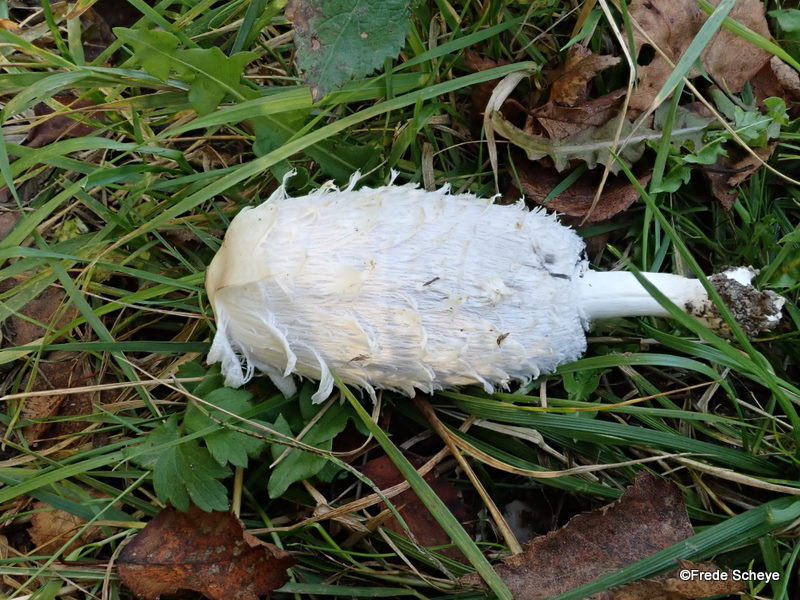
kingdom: Fungi
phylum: Basidiomycota
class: Agaricomycetes
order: Agaricales
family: Agaricaceae
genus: Coprinus
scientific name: Coprinus comatus
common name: stor parykhat
